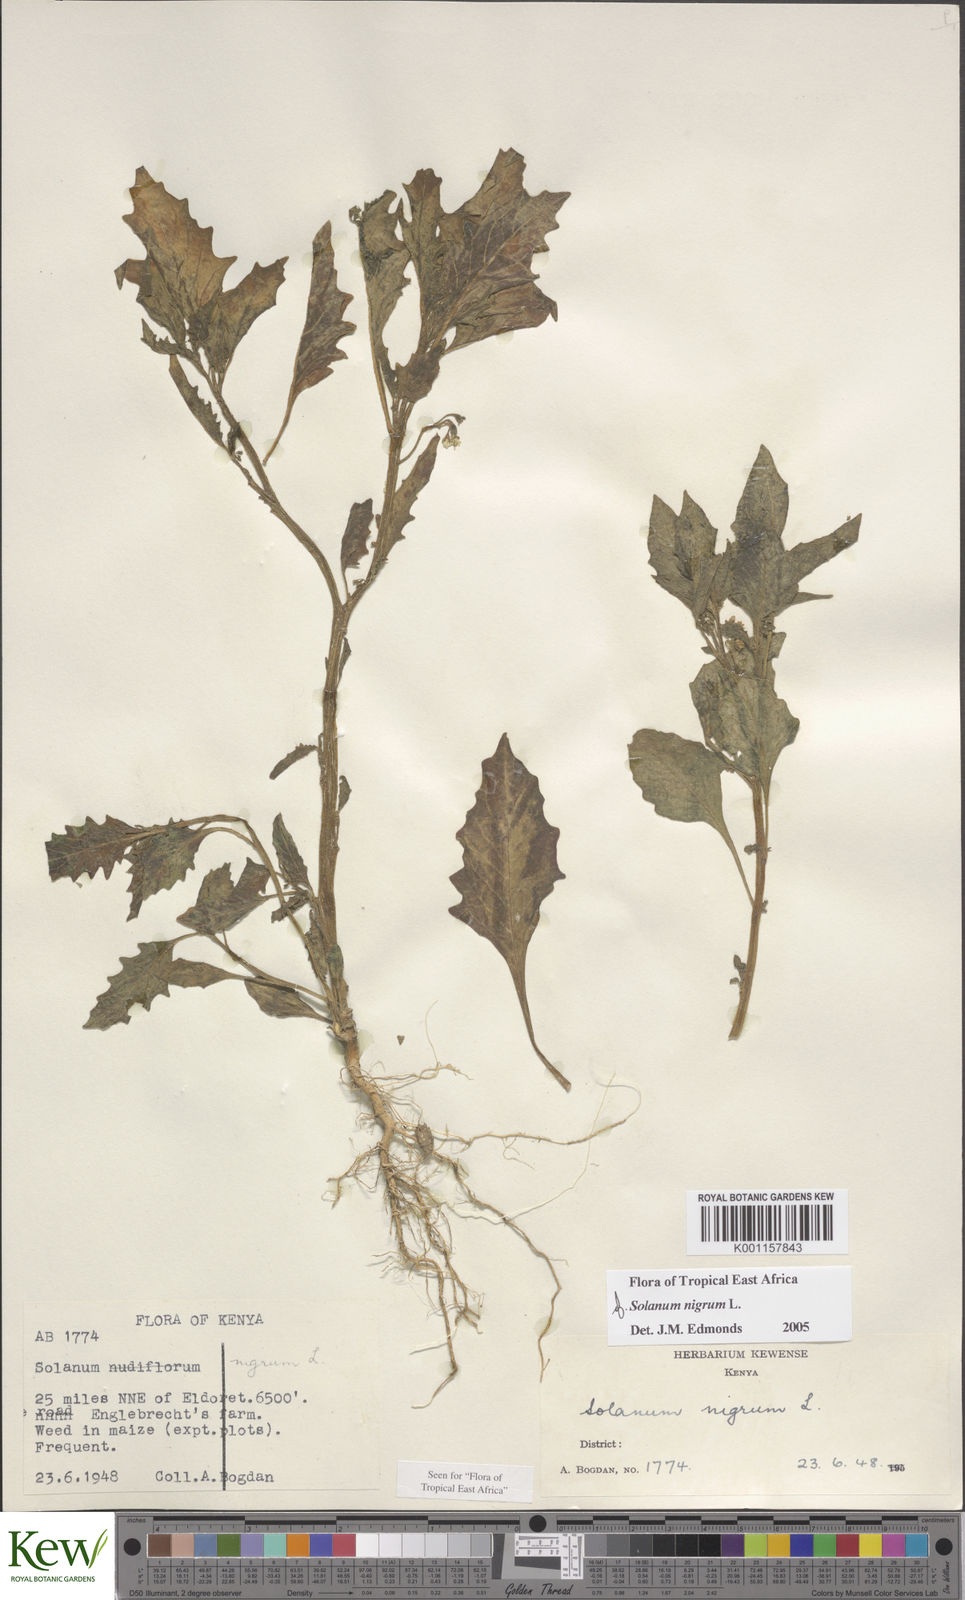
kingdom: Plantae
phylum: Tracheophyta
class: Magnoliopsida
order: Solanales
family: Solanaceae
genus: Solanum
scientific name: Solanum nigrum
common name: Black nightshade
